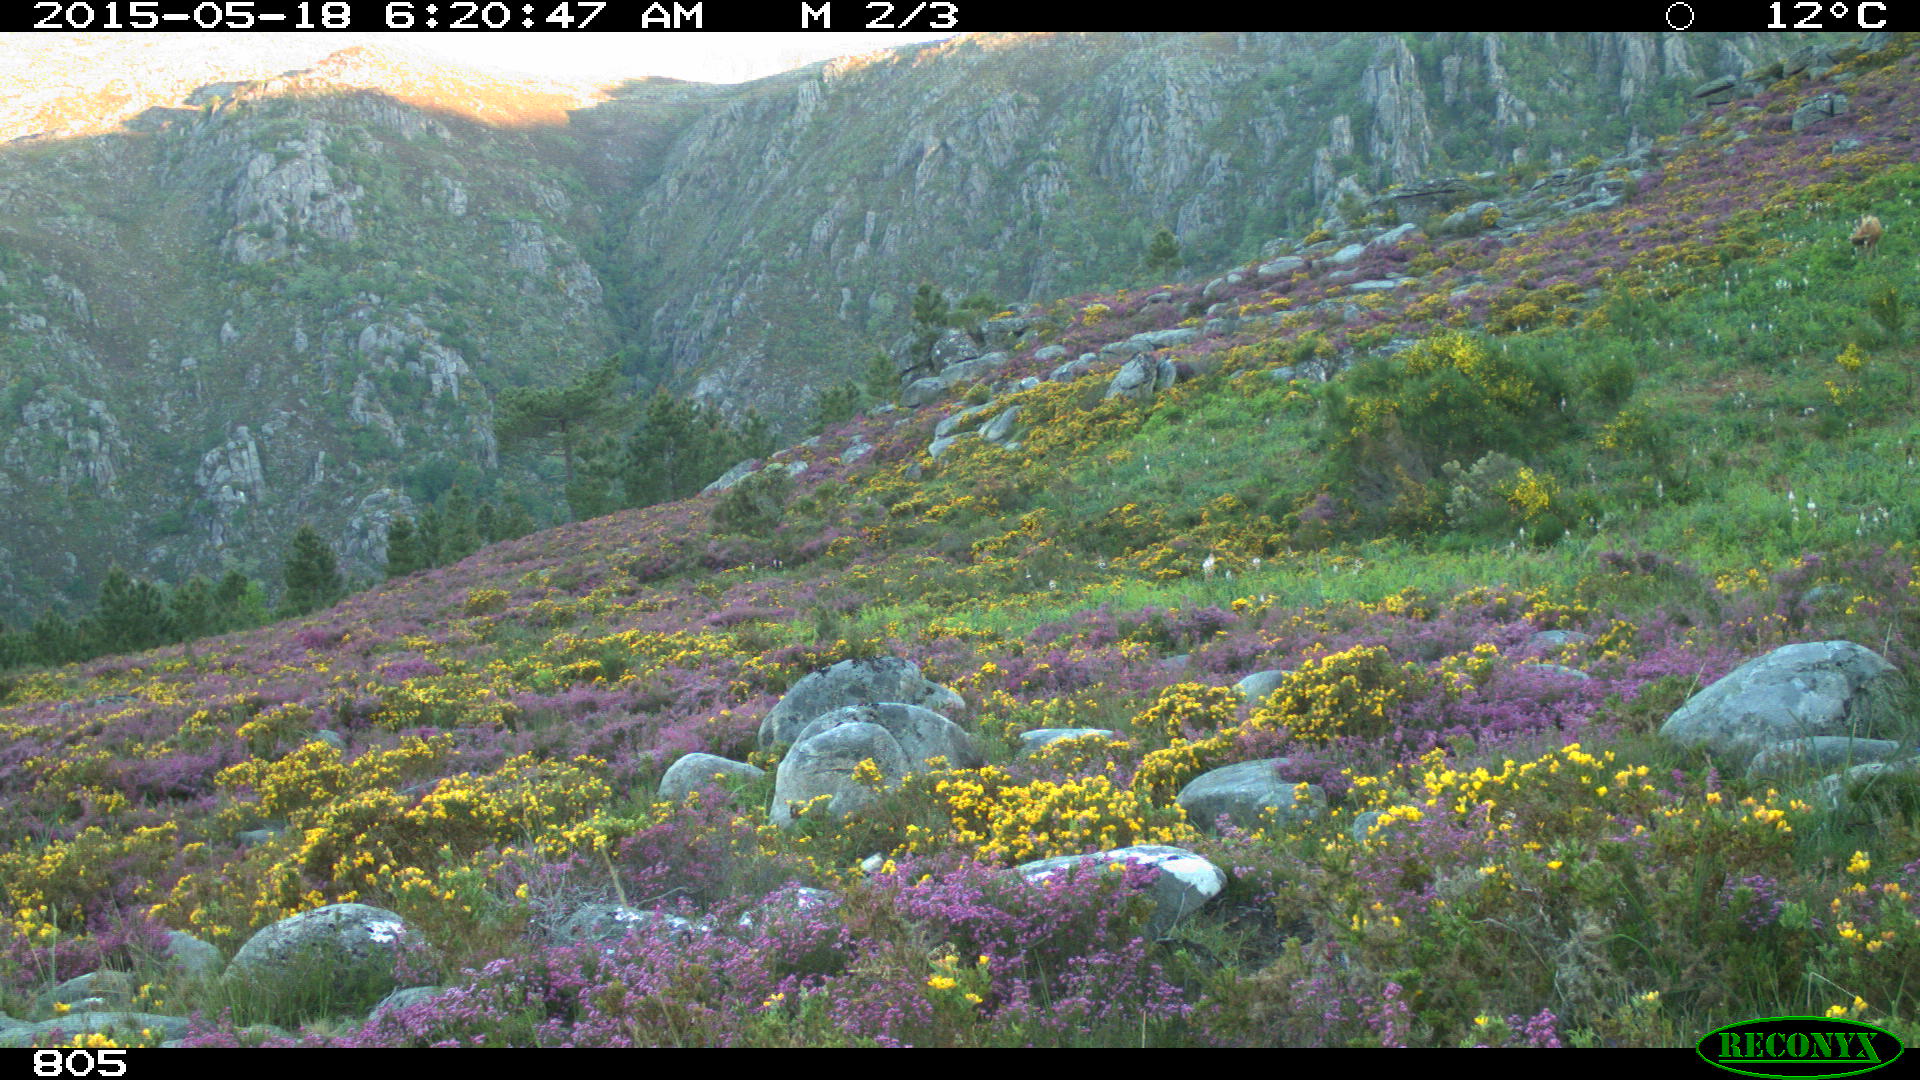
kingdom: Animalia
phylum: Chordata
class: Mammalia
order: Artiodactyla
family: Bovidae
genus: Bos
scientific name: Bos taurus
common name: Domesticated cattle
